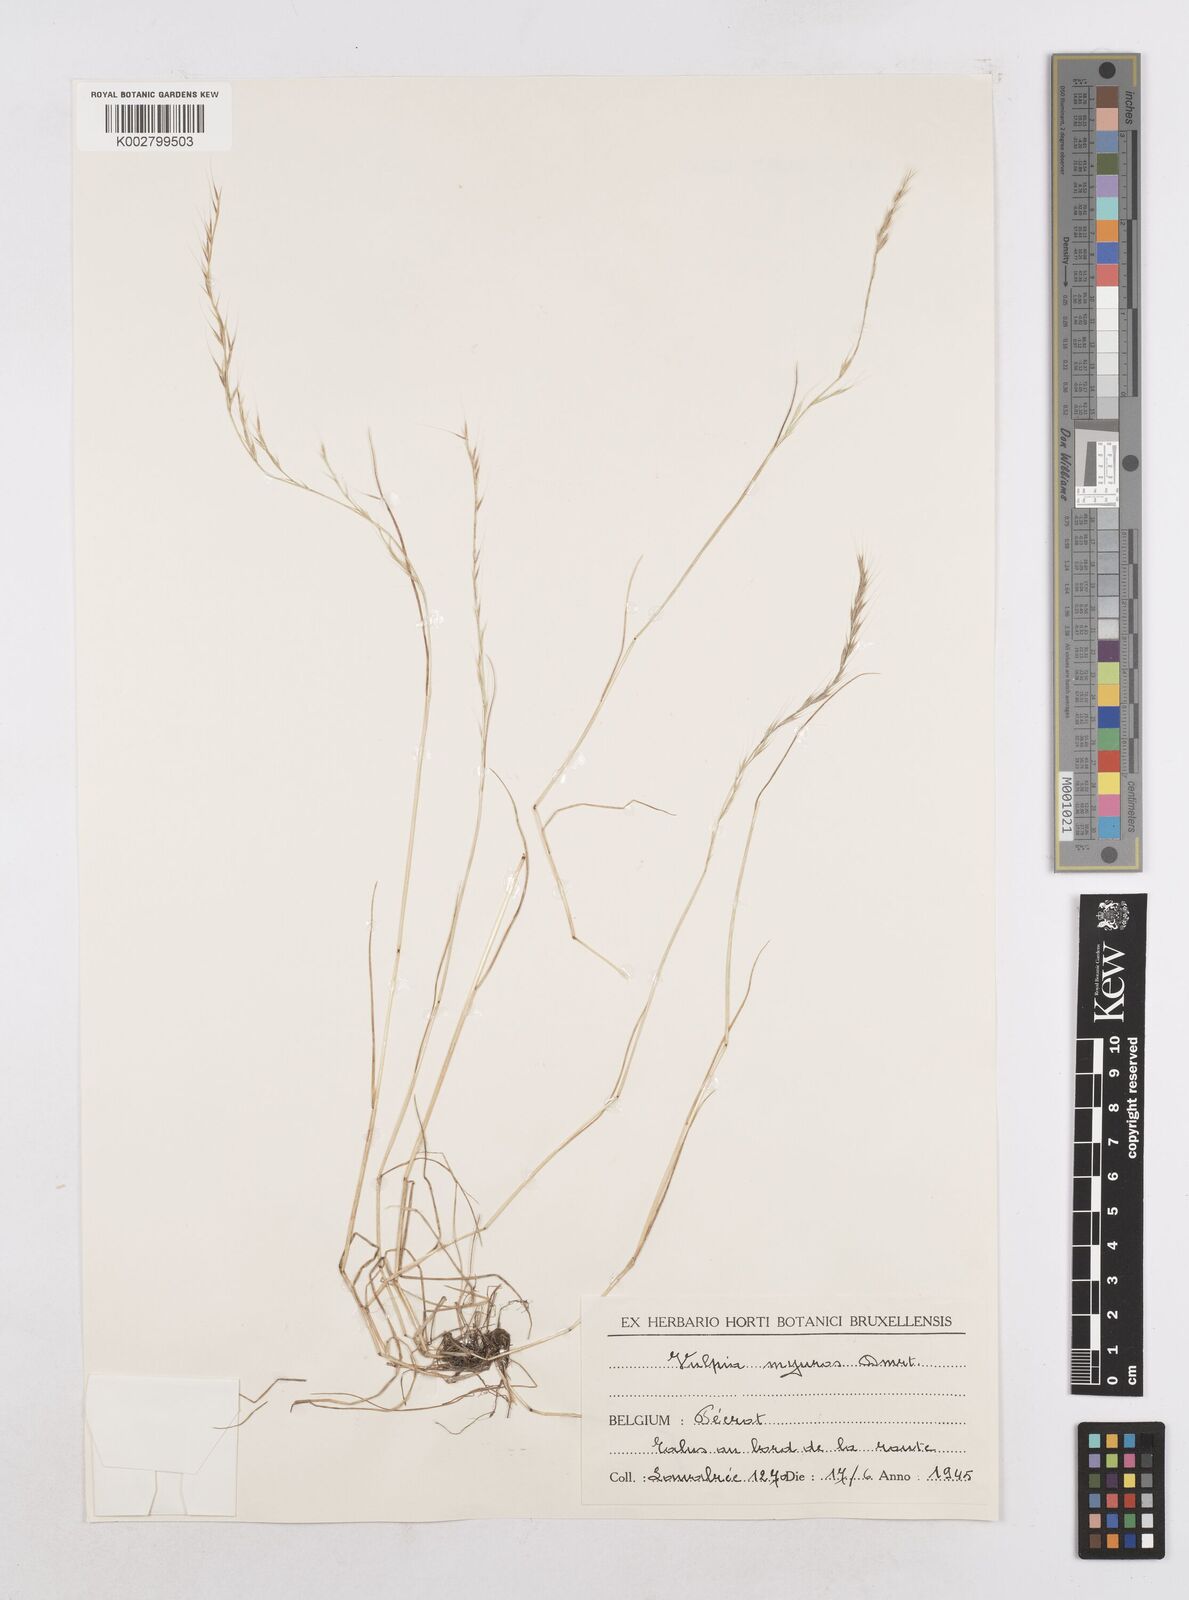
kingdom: Plantae
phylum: Tracheophyta
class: Liliopsida
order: Poales
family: Poaceae
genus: Festuca
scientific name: Festuca myuros
